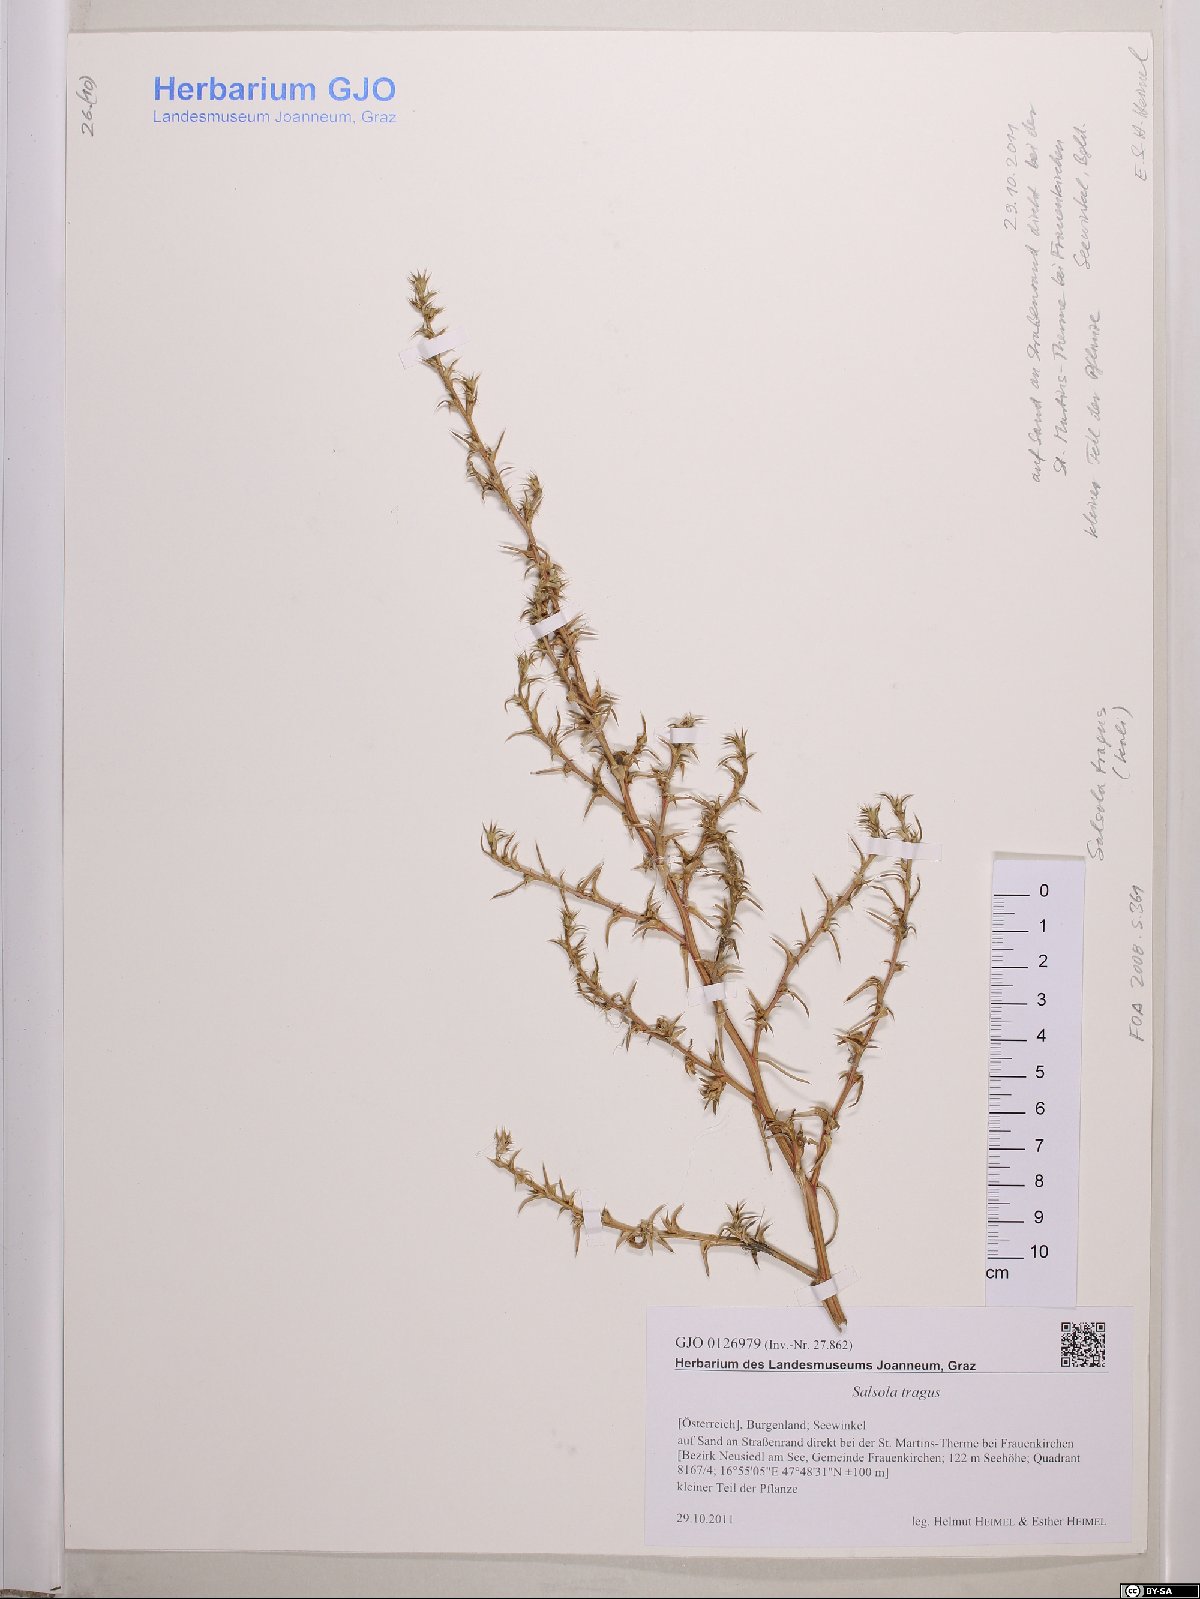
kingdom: Plantae
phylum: Tracheophyta
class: Magnoliopsida
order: Caryophyllales
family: Amaranthaceae
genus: Salsola
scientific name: Salsola tragus
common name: Prickly russian thistle
